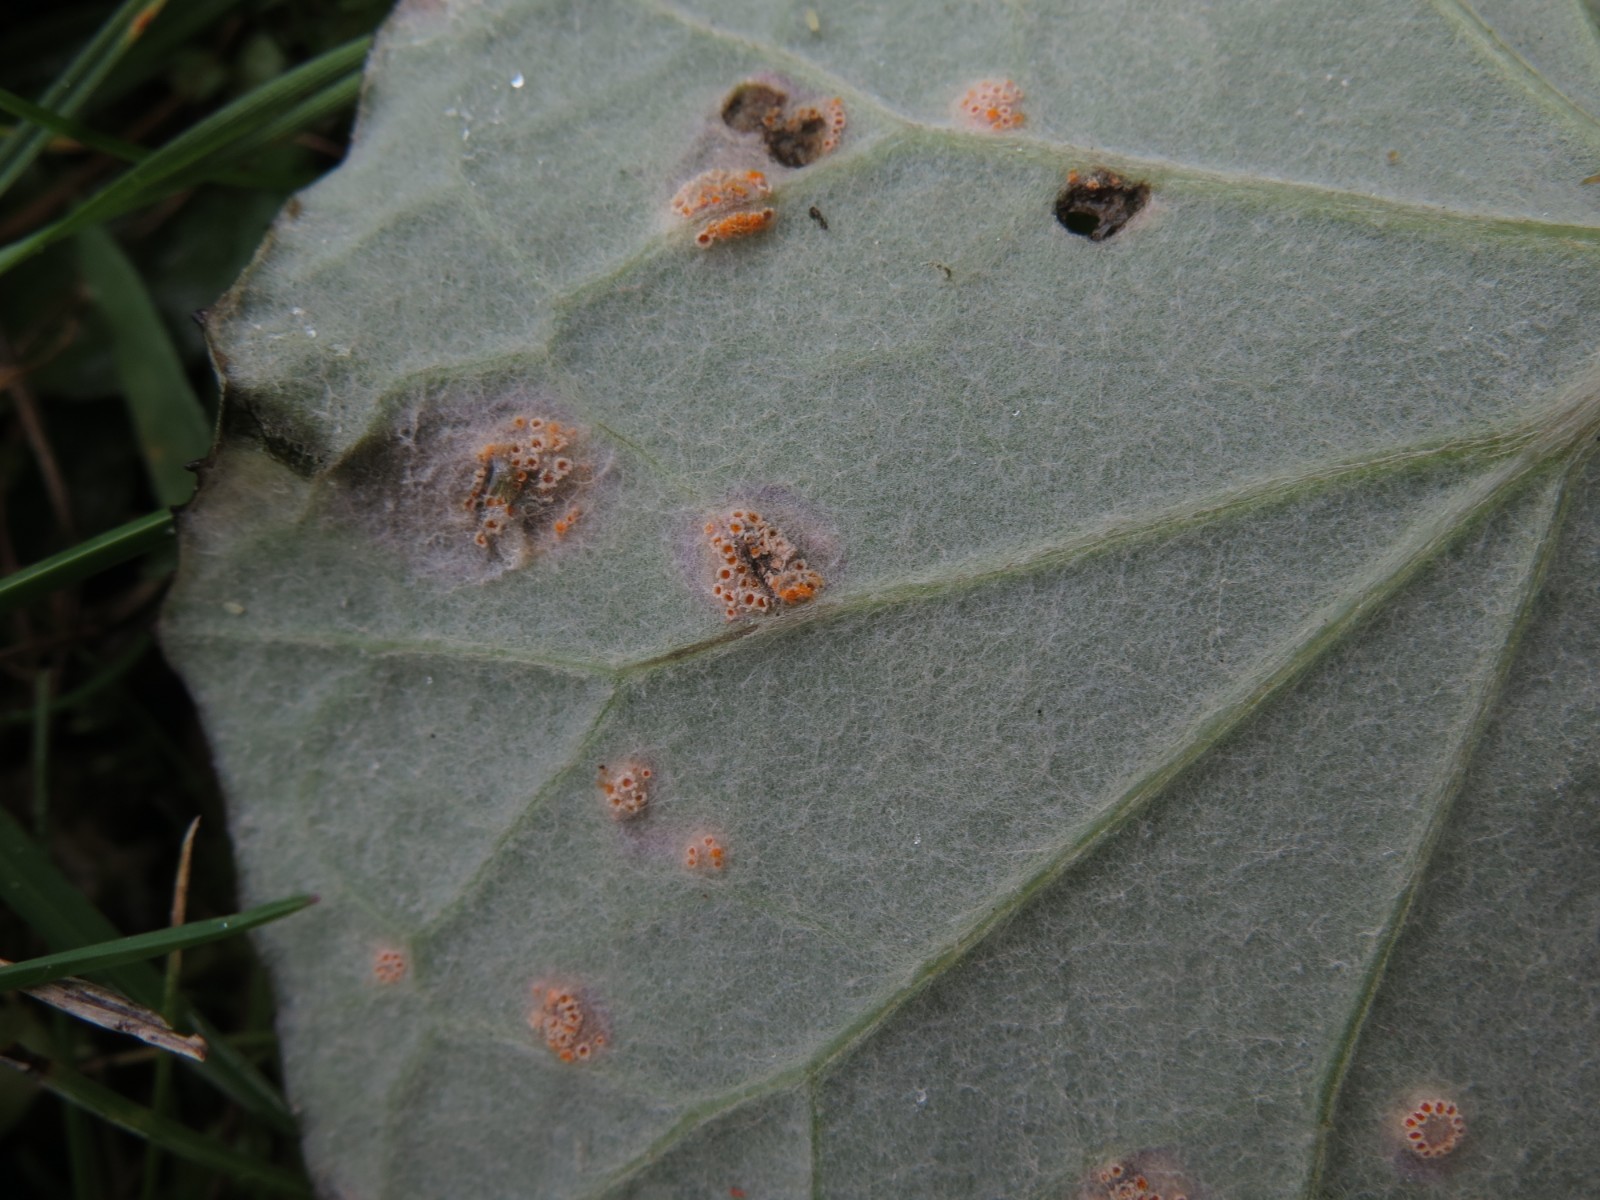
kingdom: Fungi
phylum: Basidiomycota
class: Pucciniomycetes
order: Pucciniales
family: Pucciniaceae
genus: Puccinia
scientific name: Puccinia poarum
